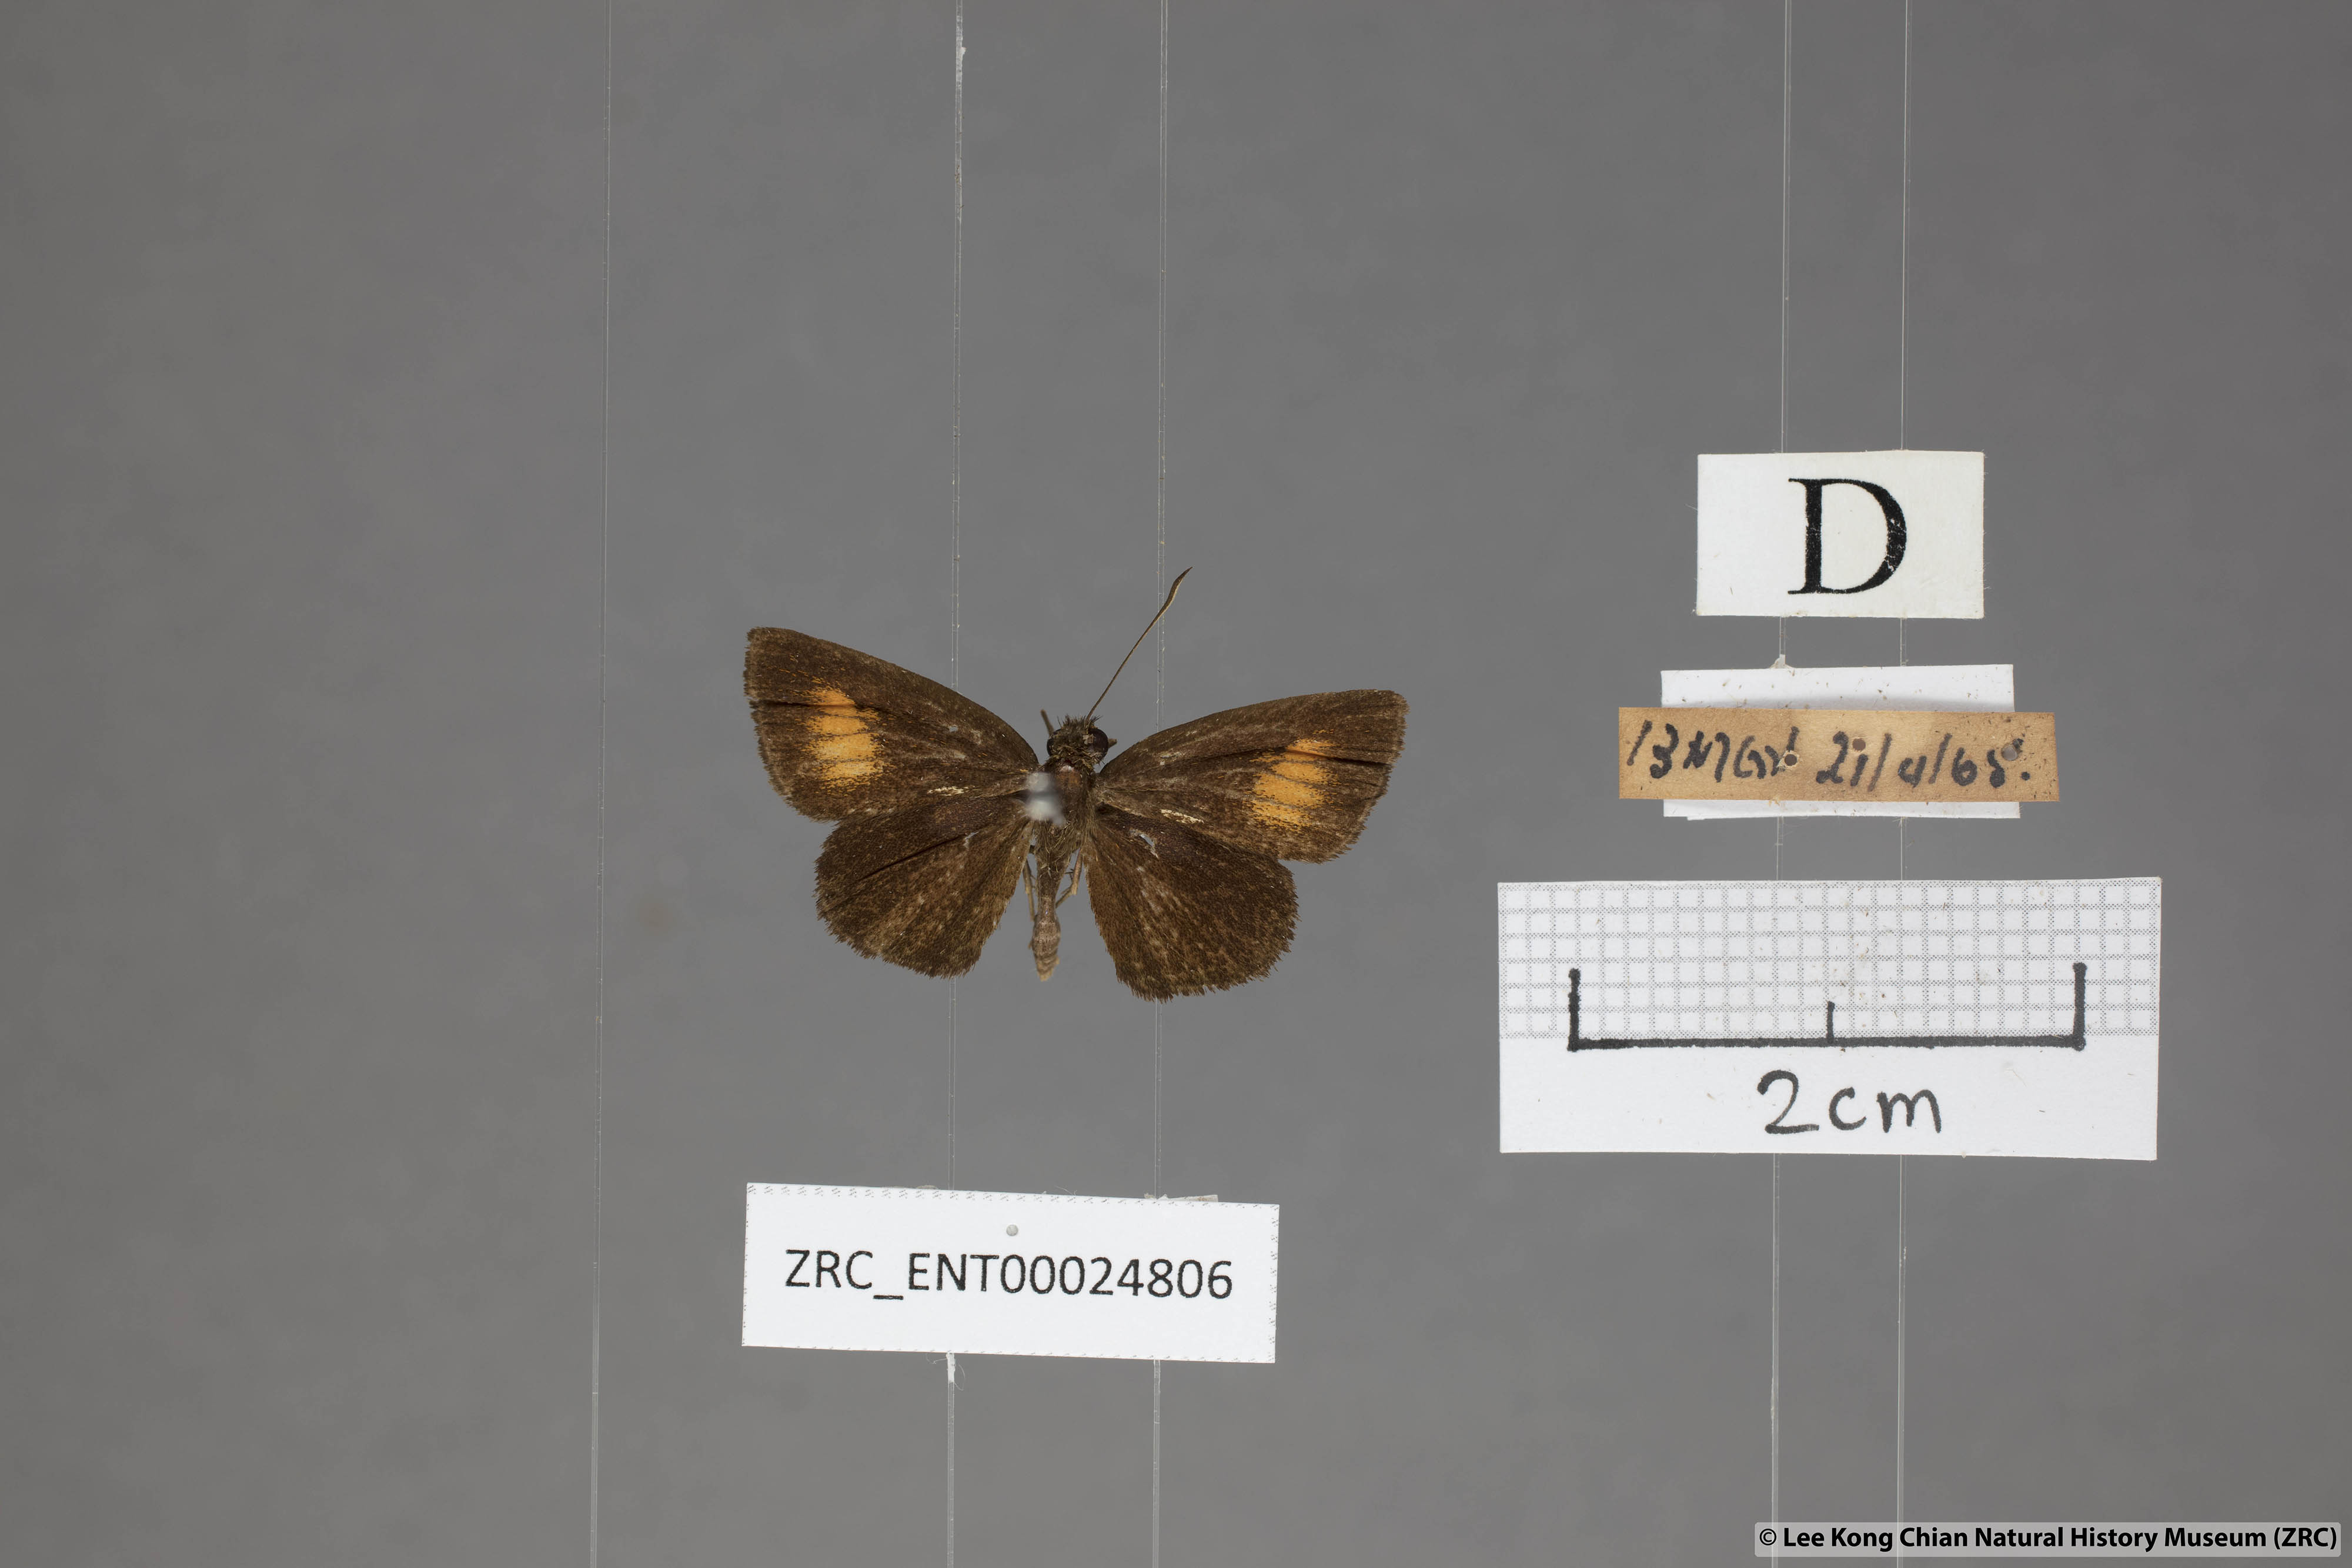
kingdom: Animalia
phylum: Arthropoda
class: Insecta
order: Lepidoptera
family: Hesperiidae
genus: Iambrix
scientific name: Iambrix Idmon obliquans
